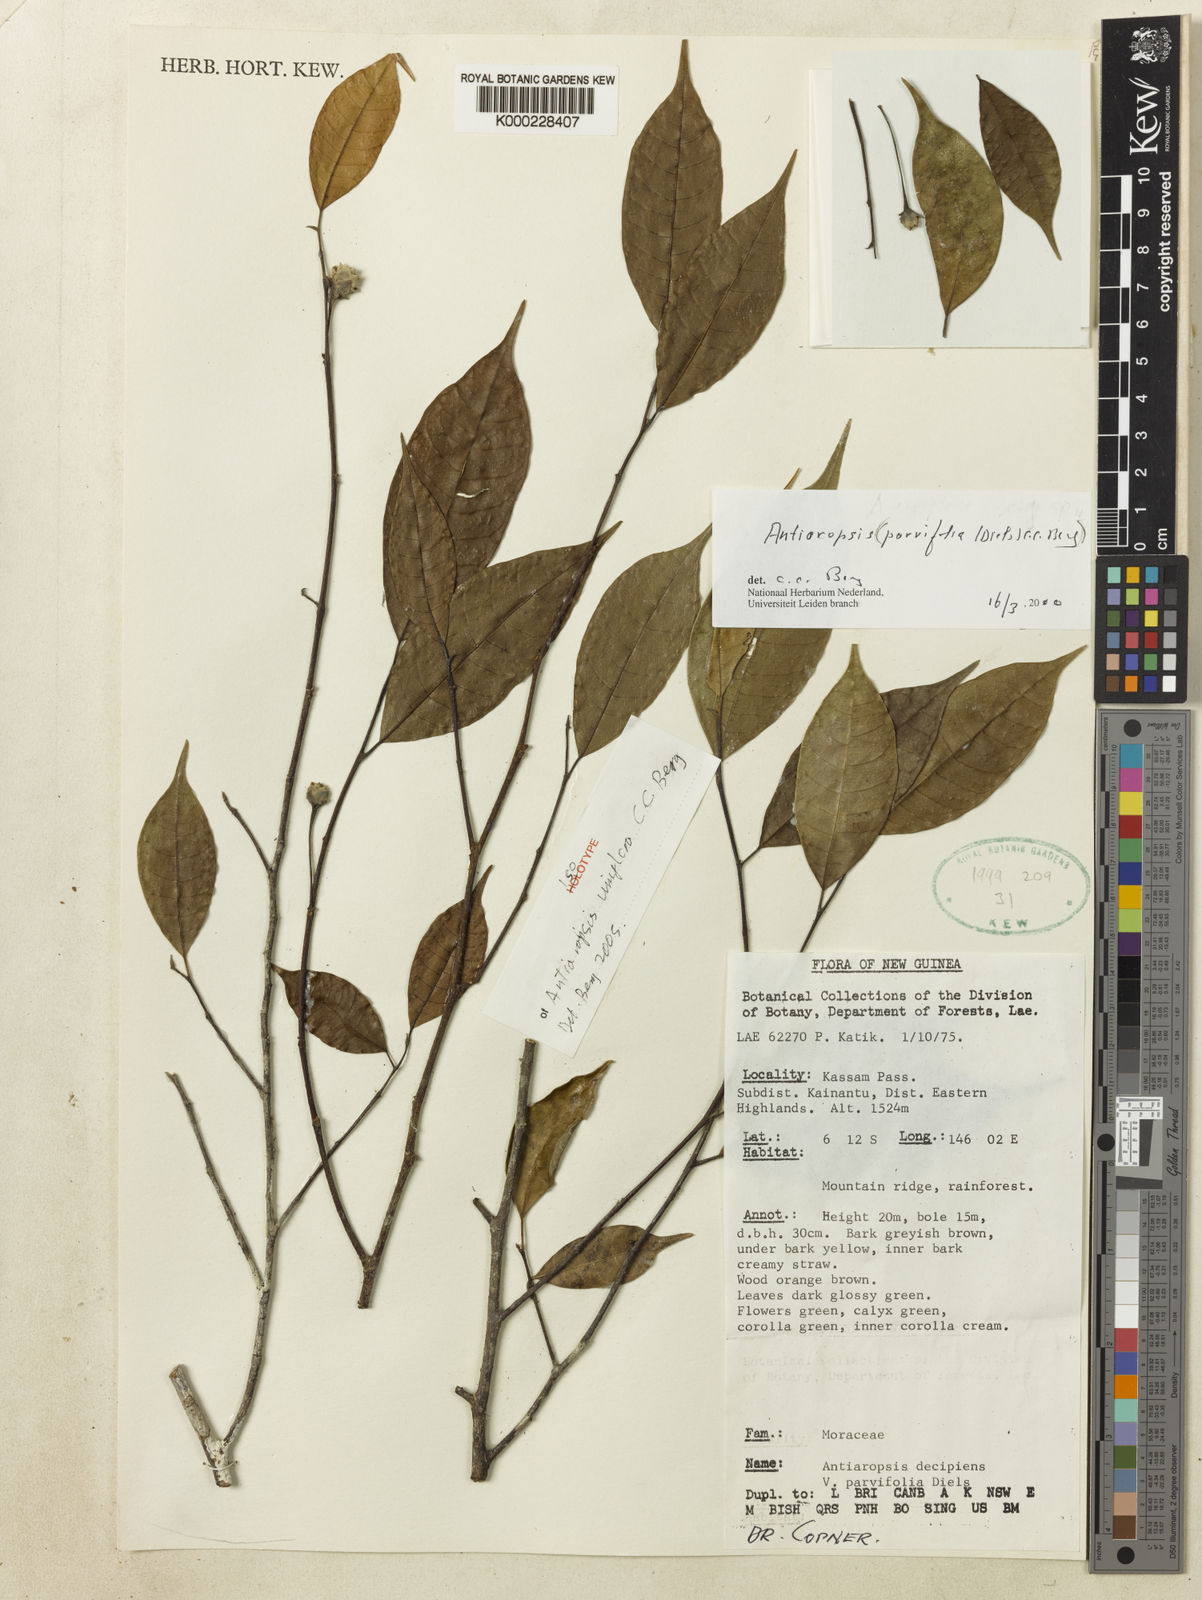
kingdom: Plantae
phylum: Tracheophyta
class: Magnoliopsida
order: Rosales
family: Moraceae
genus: Antiaropsis
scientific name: Antiaropsis uniflora
